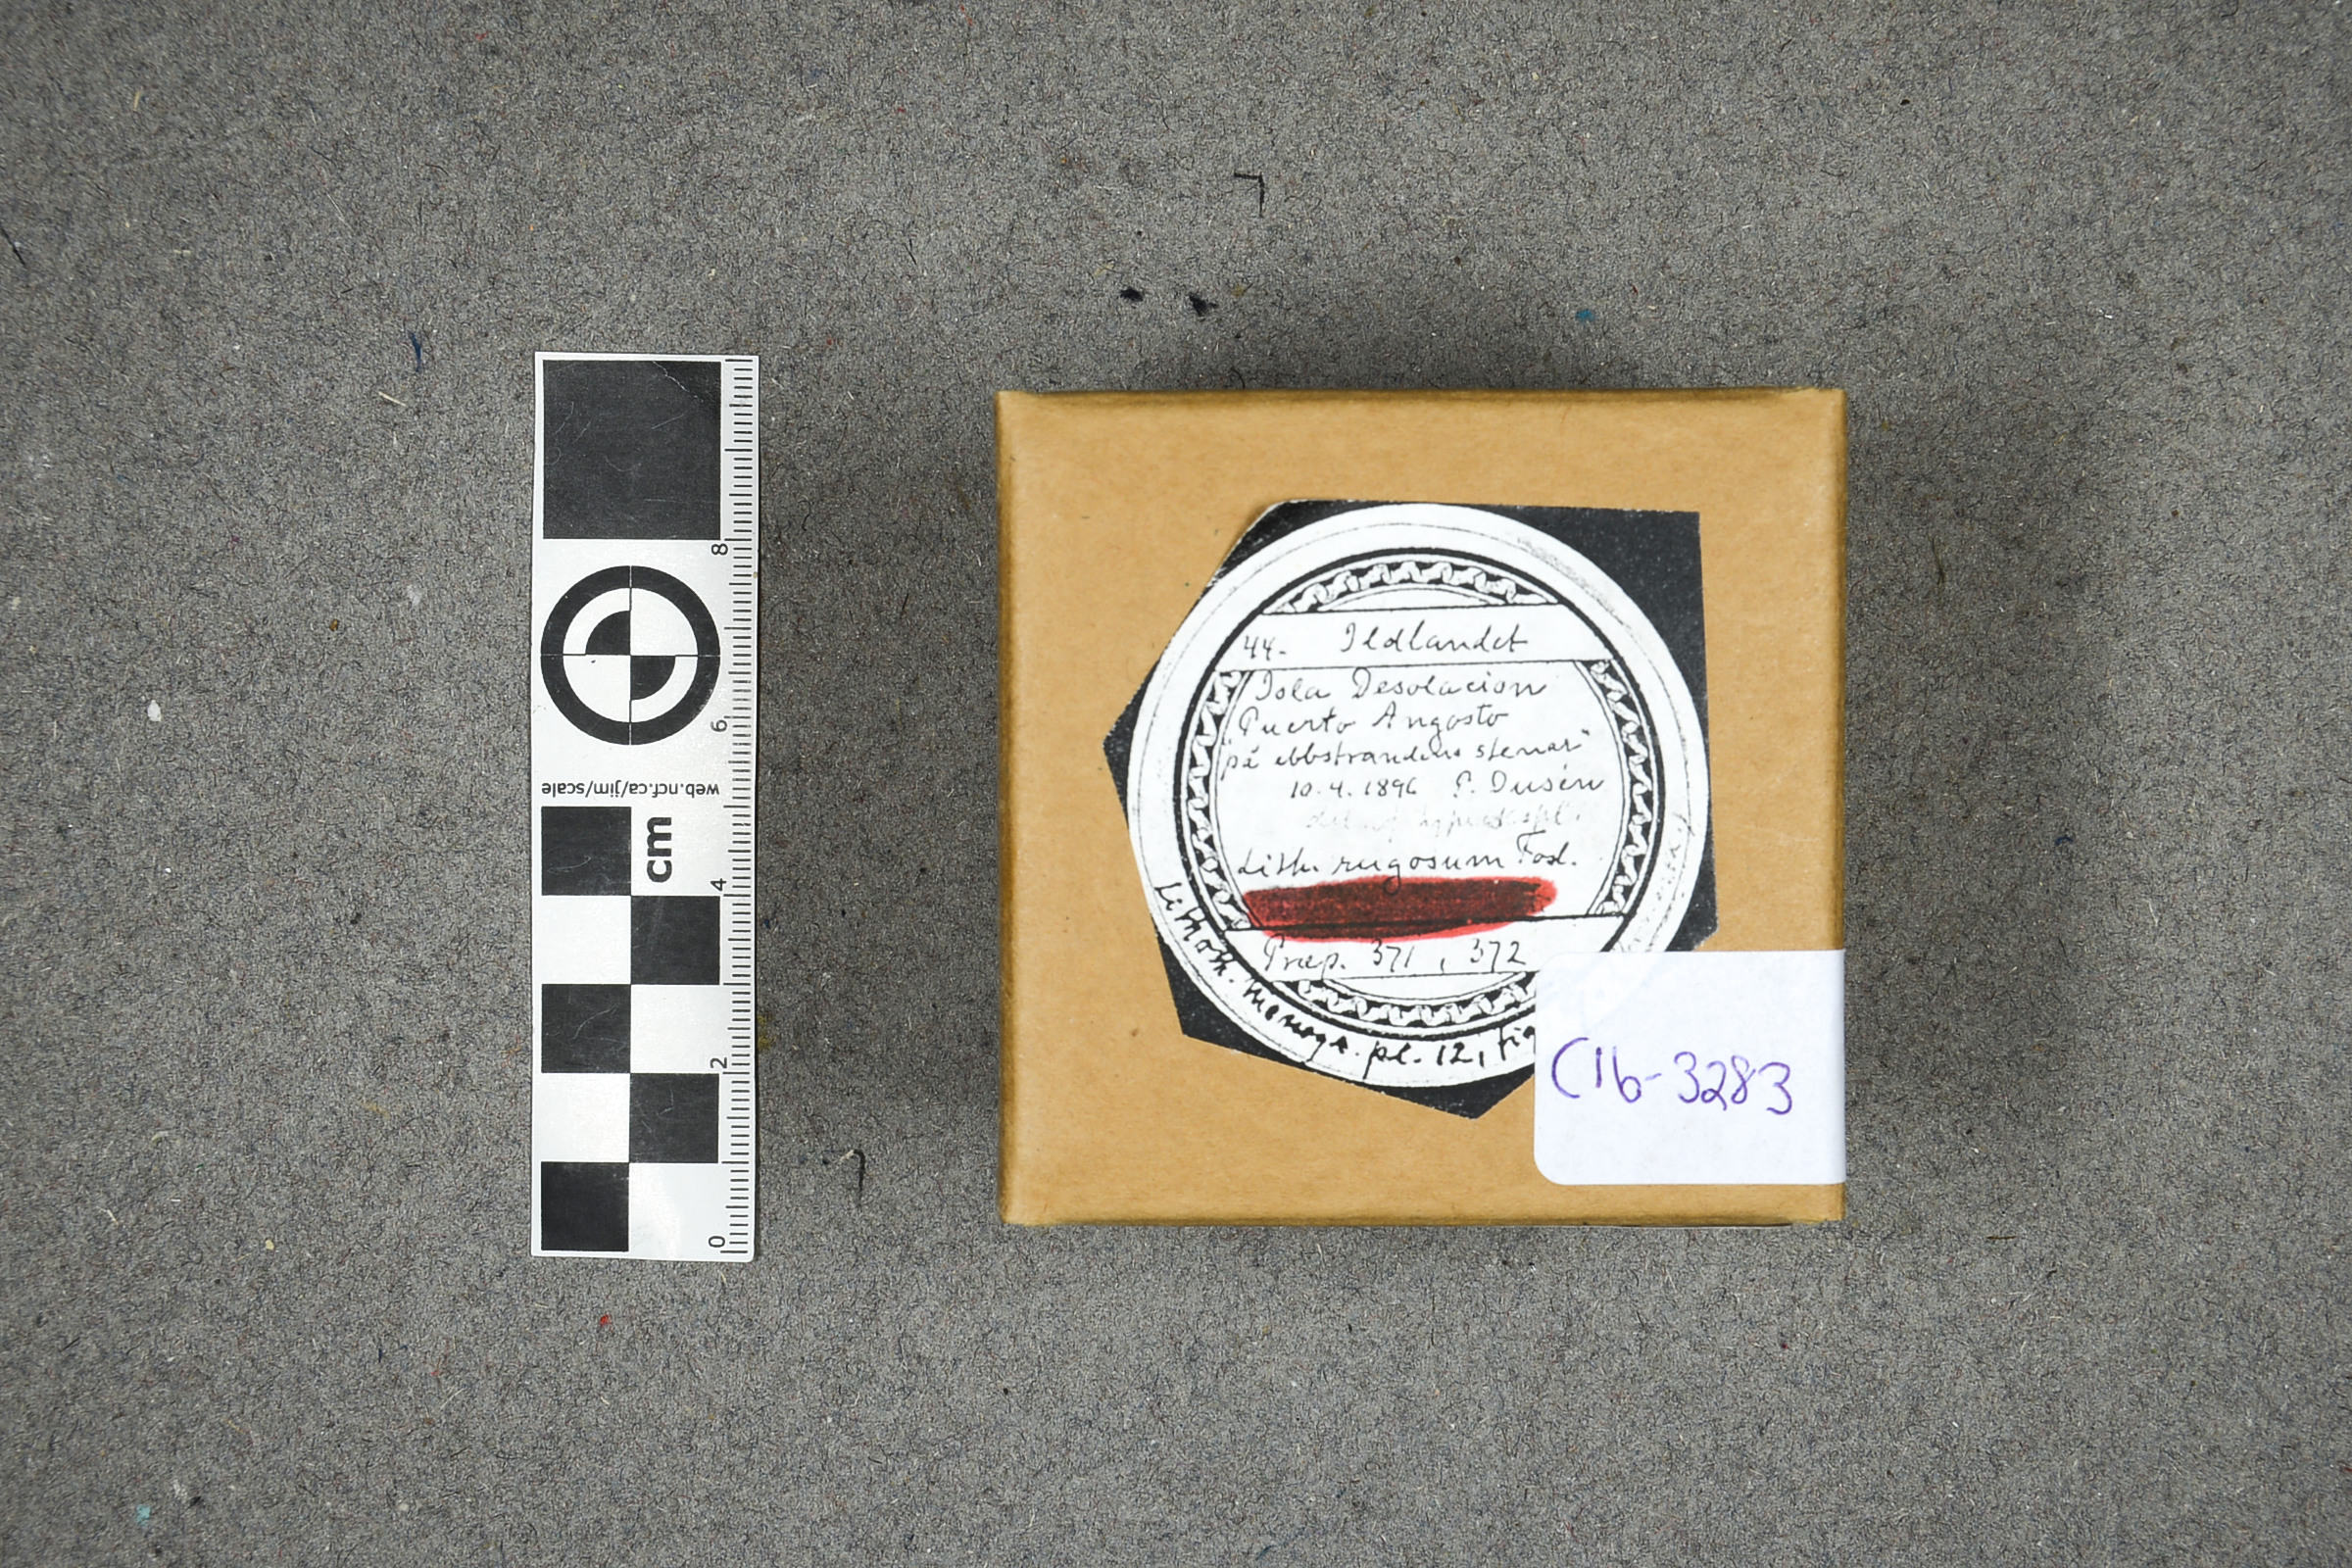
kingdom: Plantae
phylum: Rhodophyta
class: Florideophyceae
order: Corallinales
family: Lithophyllaceae
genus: Lithophyllum
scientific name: Lithophyllum rugosum
